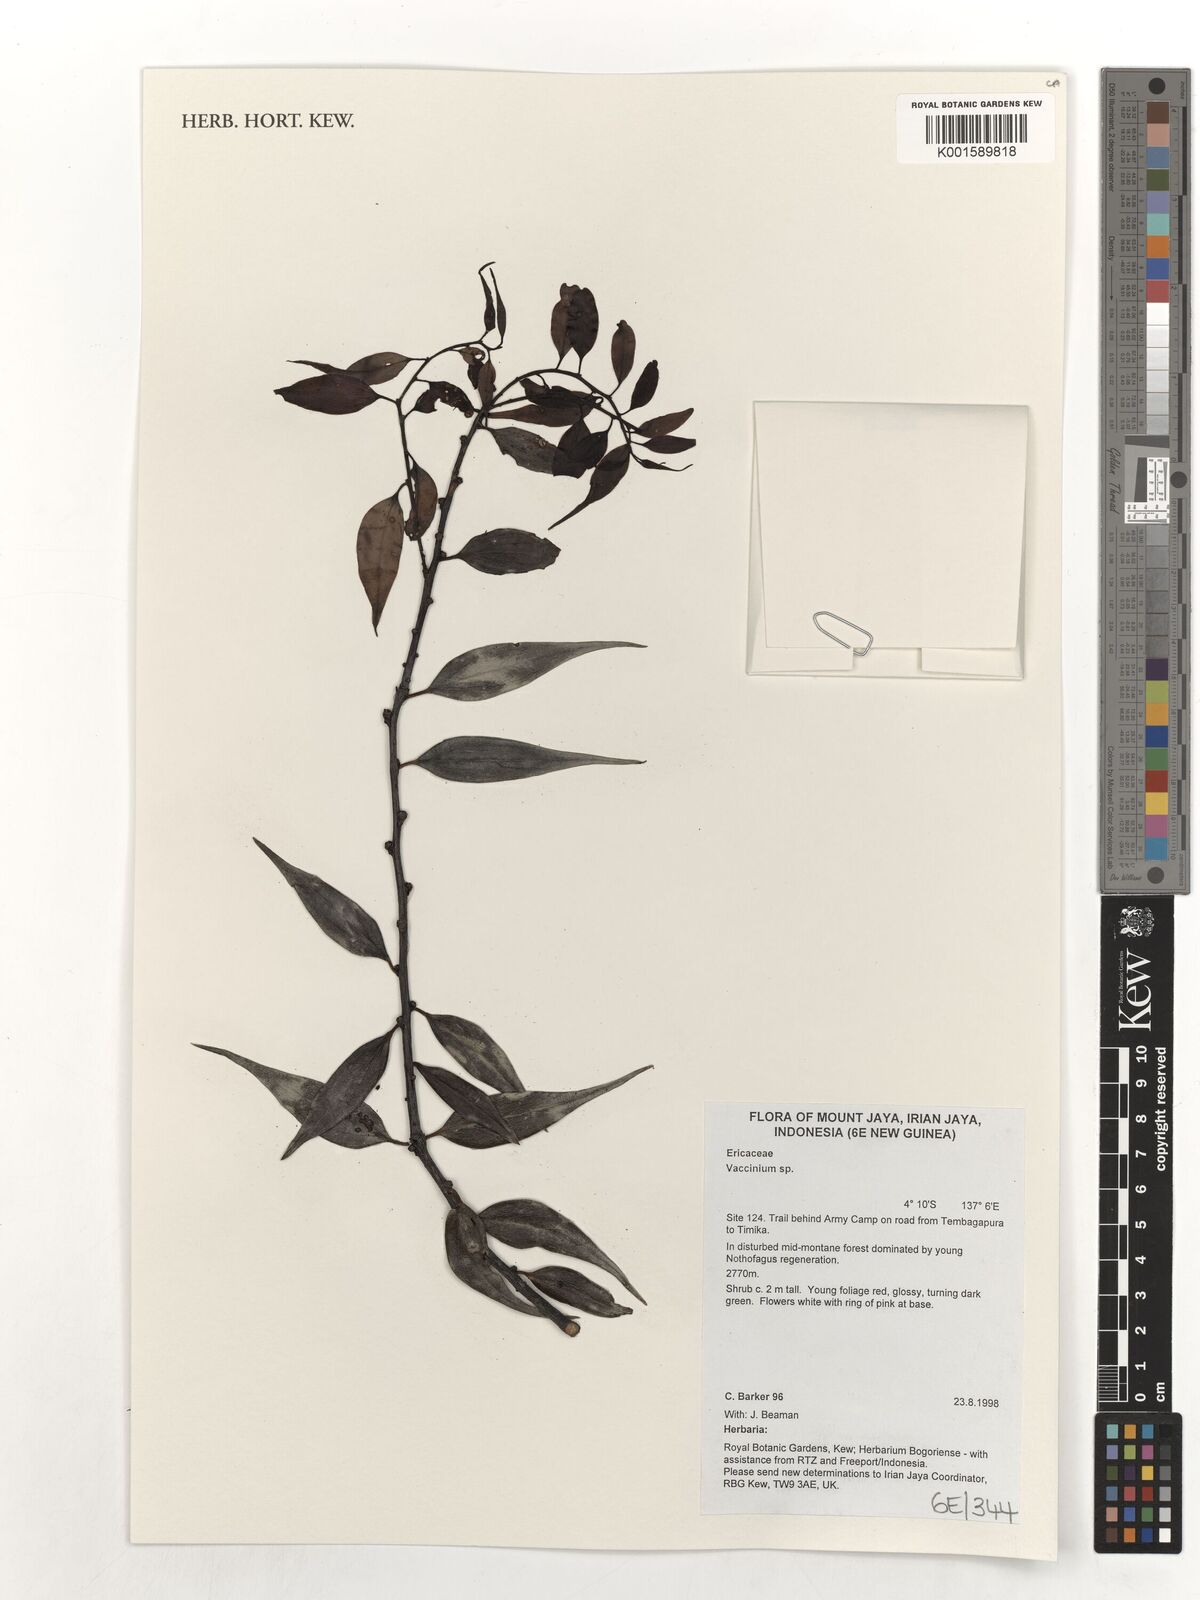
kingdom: Plantae
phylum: Tracheophyta
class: Magnoliopsida
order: Ericales
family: Ericaceae
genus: Vaccinium
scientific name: Vaccinium
